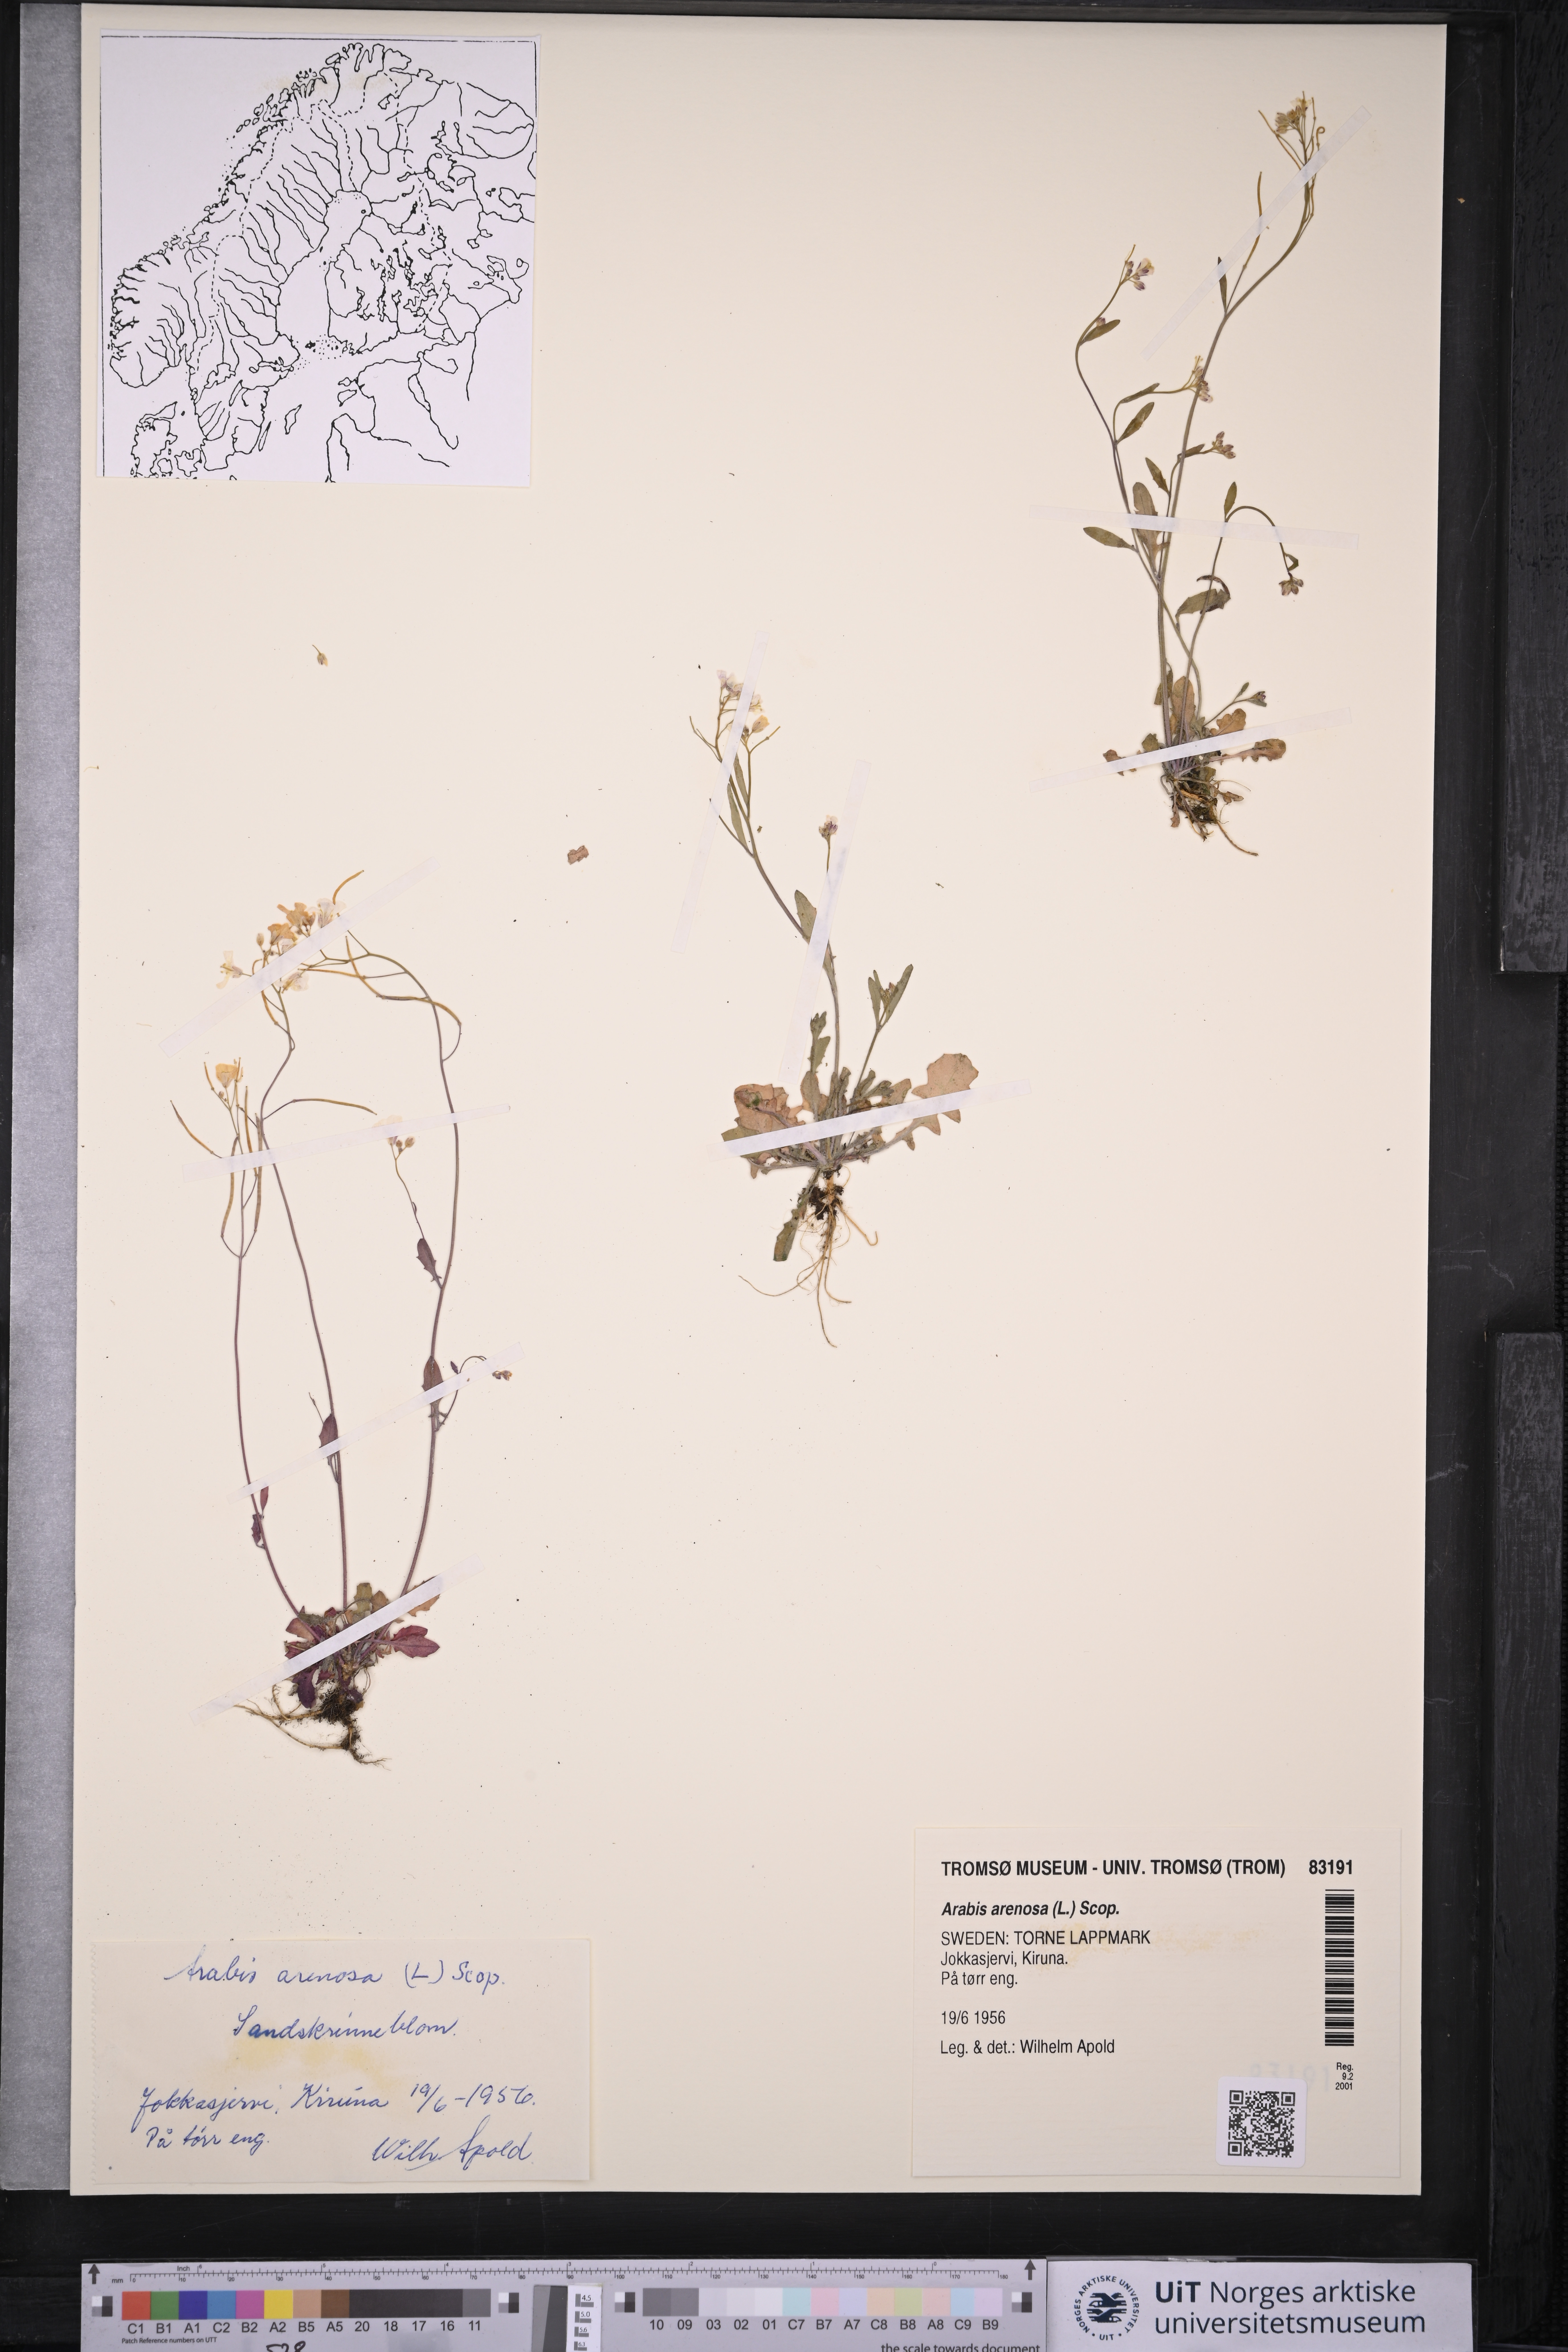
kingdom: Plantae
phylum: Tracheophyta
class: Magnoliopsida
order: Brassicales
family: Brassicaceae
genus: Arabidopsis
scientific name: Arabidopsis arenosa
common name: Sand rock-cress
